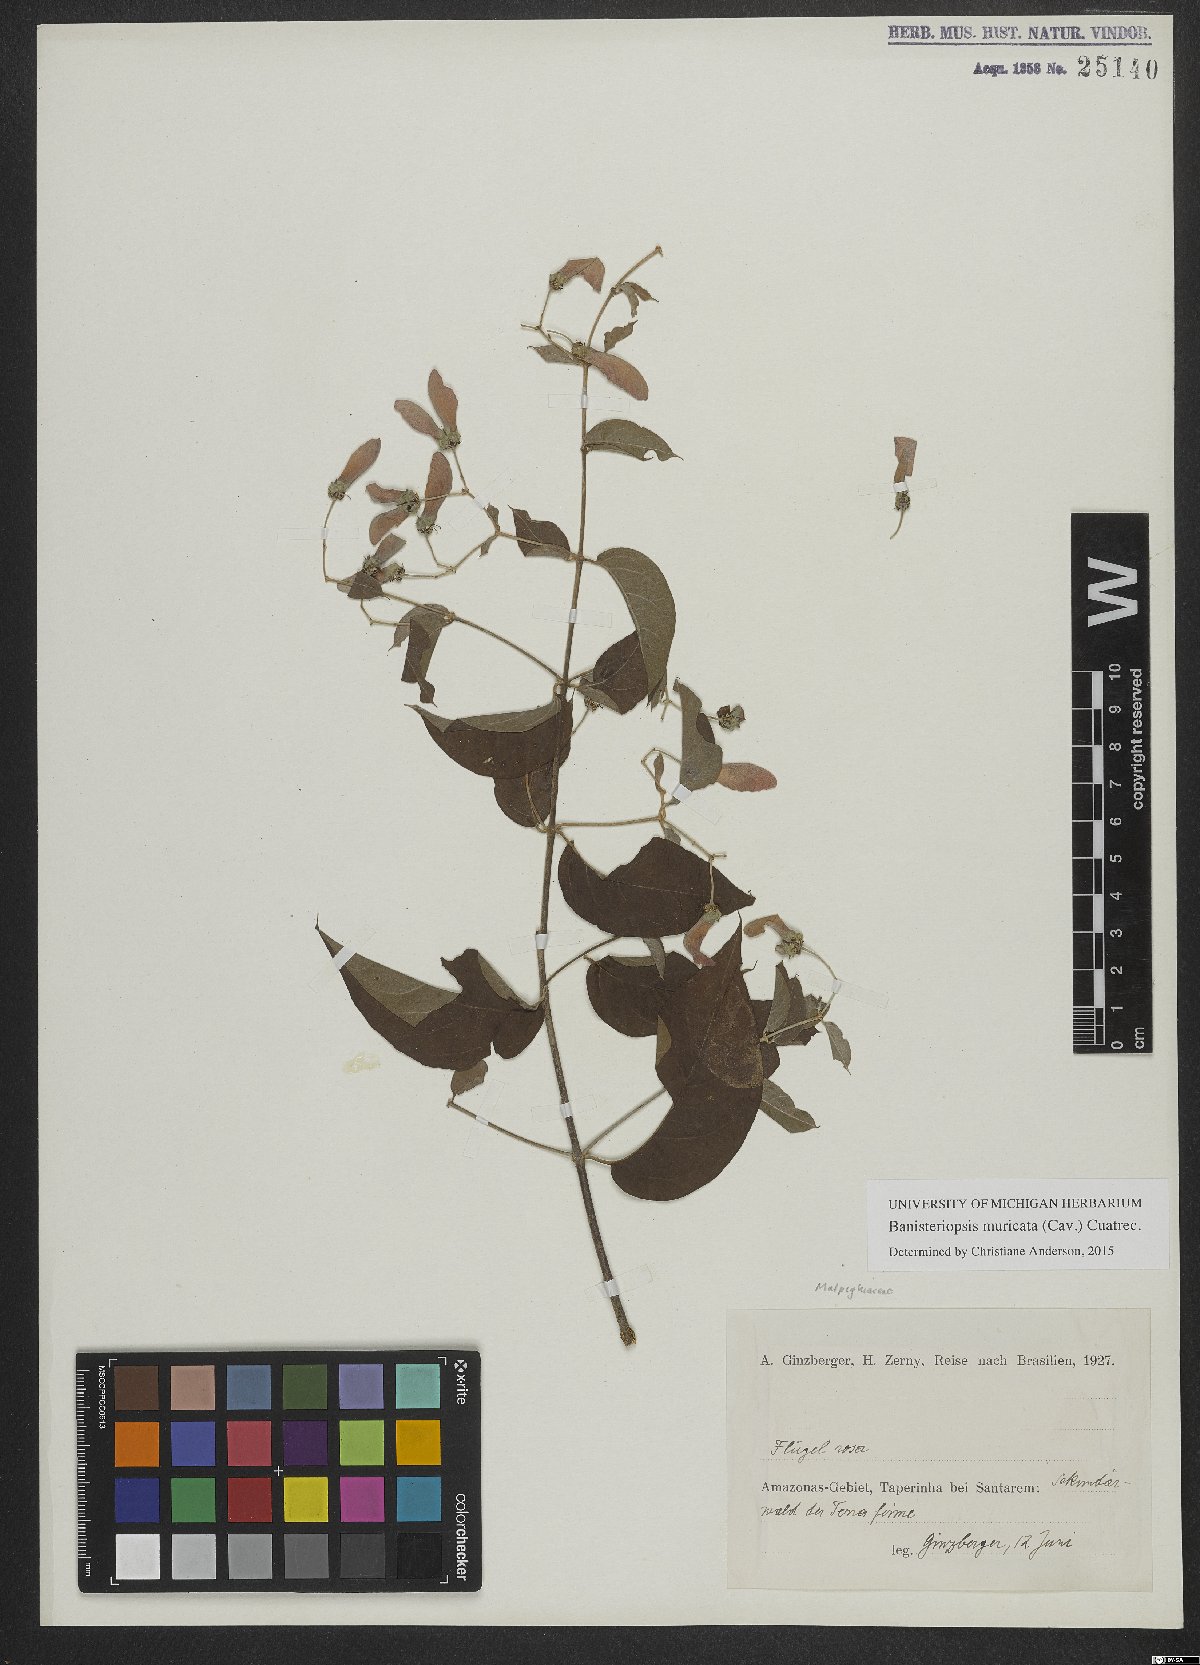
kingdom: Plantae
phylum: Tracheophyta
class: Magnoliopsida
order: Malpighiales
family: Malpighiaceae
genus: Banisteriopsis
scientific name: Banisteriopsis muricata
